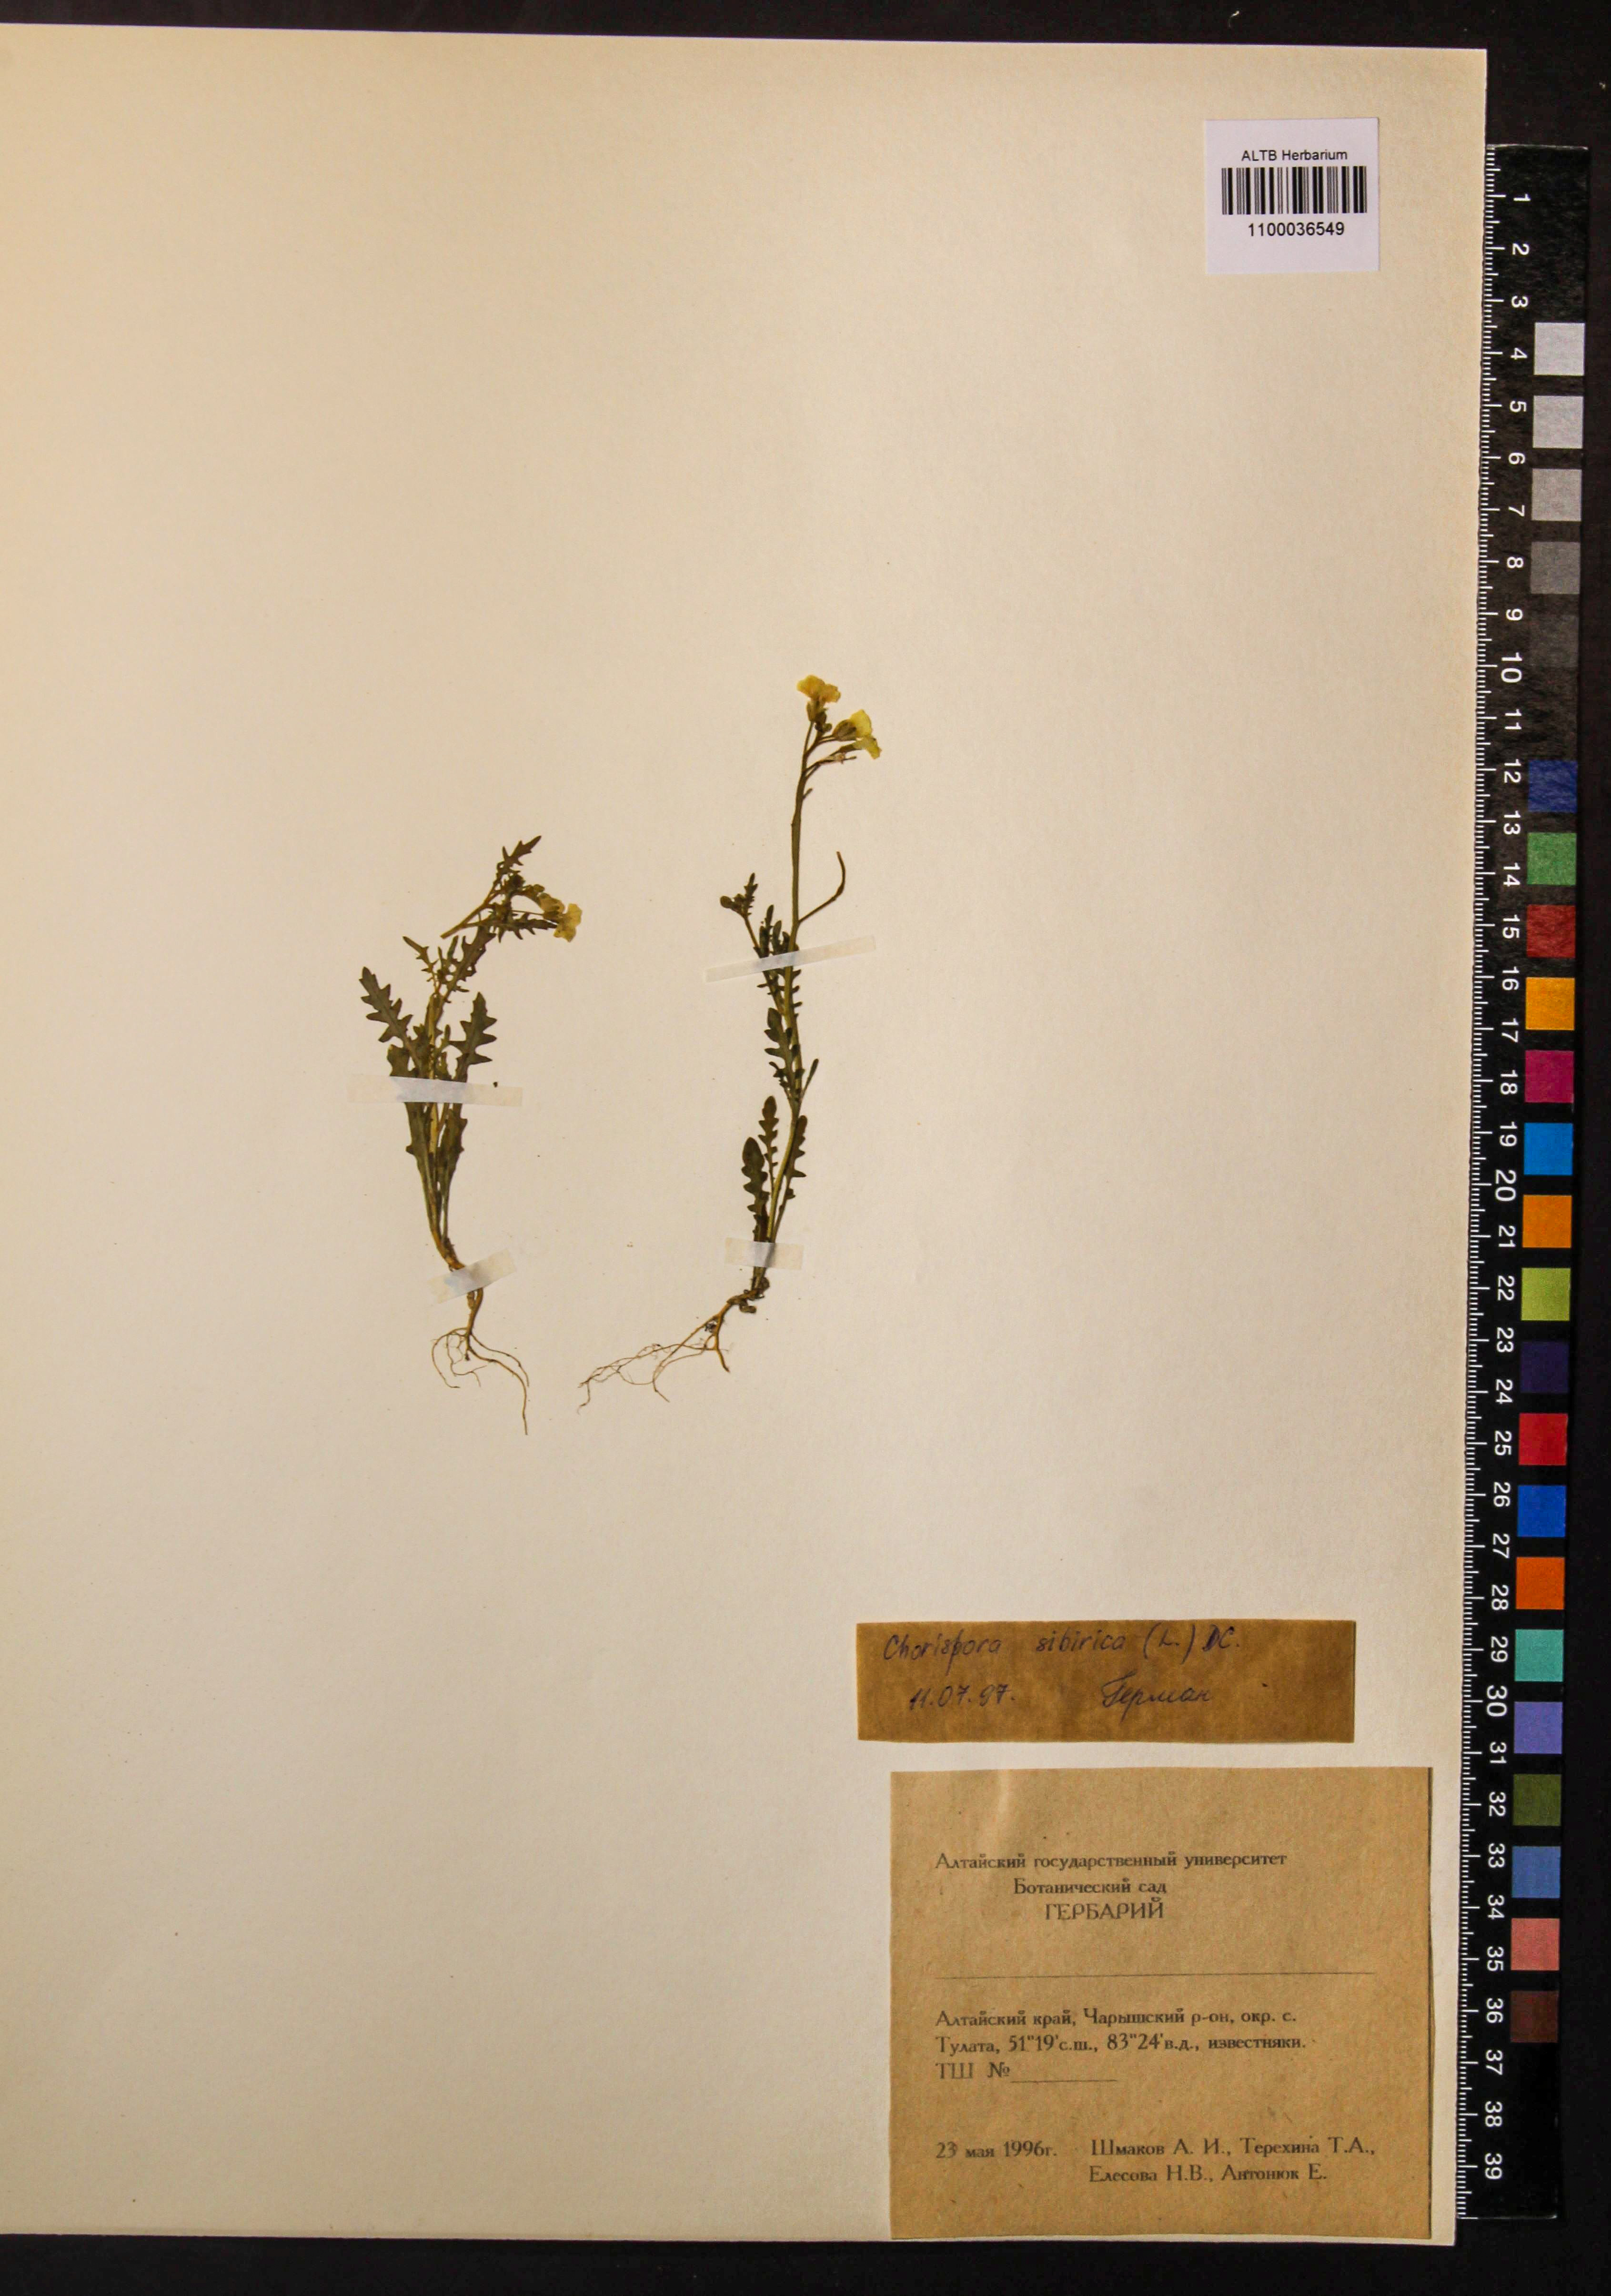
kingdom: Plantae
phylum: Tracheophyta
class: Magnoliopsida
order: Brassicales
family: Brassicaceae
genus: Chorispora
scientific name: Chorispora sibirica
